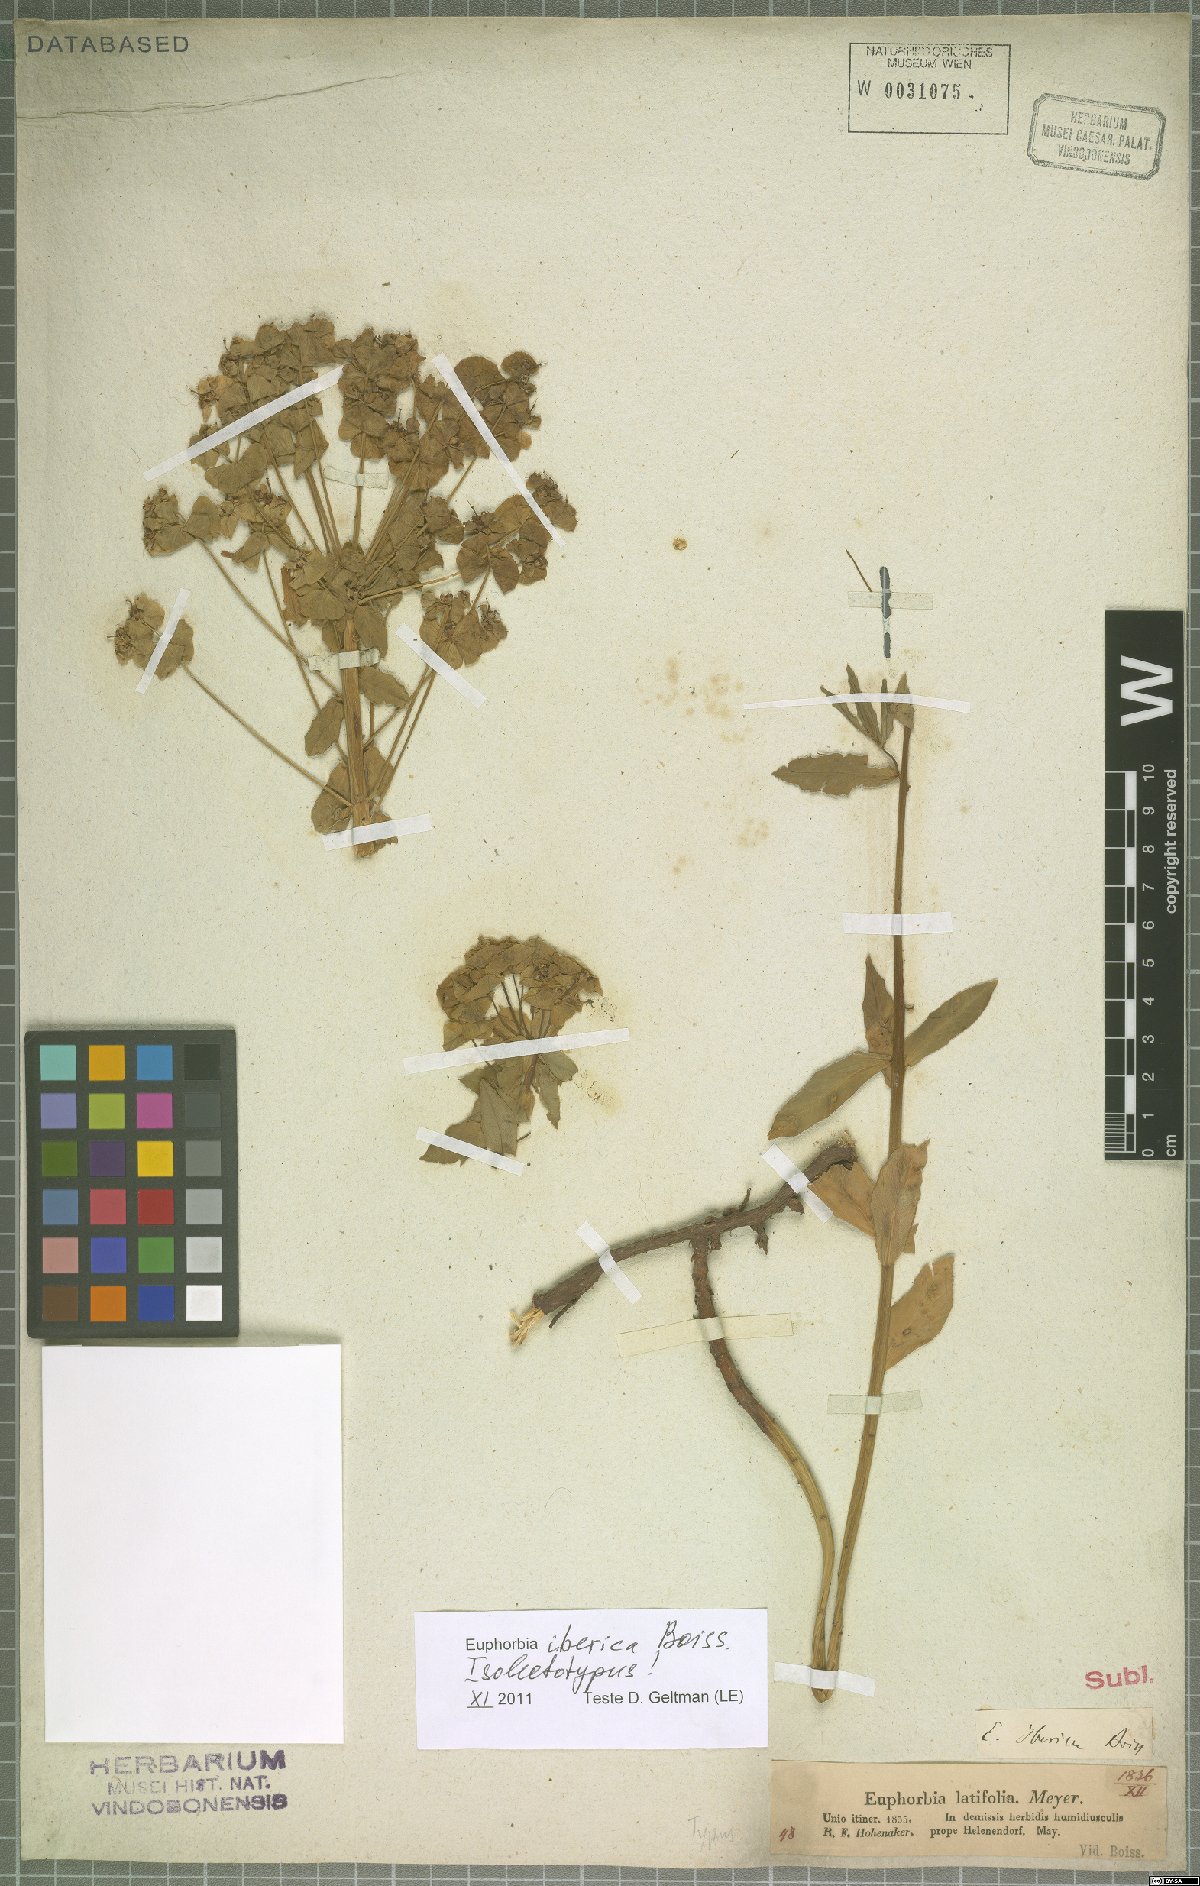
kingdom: Plantae
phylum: Tracheophyta
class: Magnoliopsida
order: Malpighiales
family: Euphorbiaceae
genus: Euphorbia
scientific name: Euphorbia iberica
